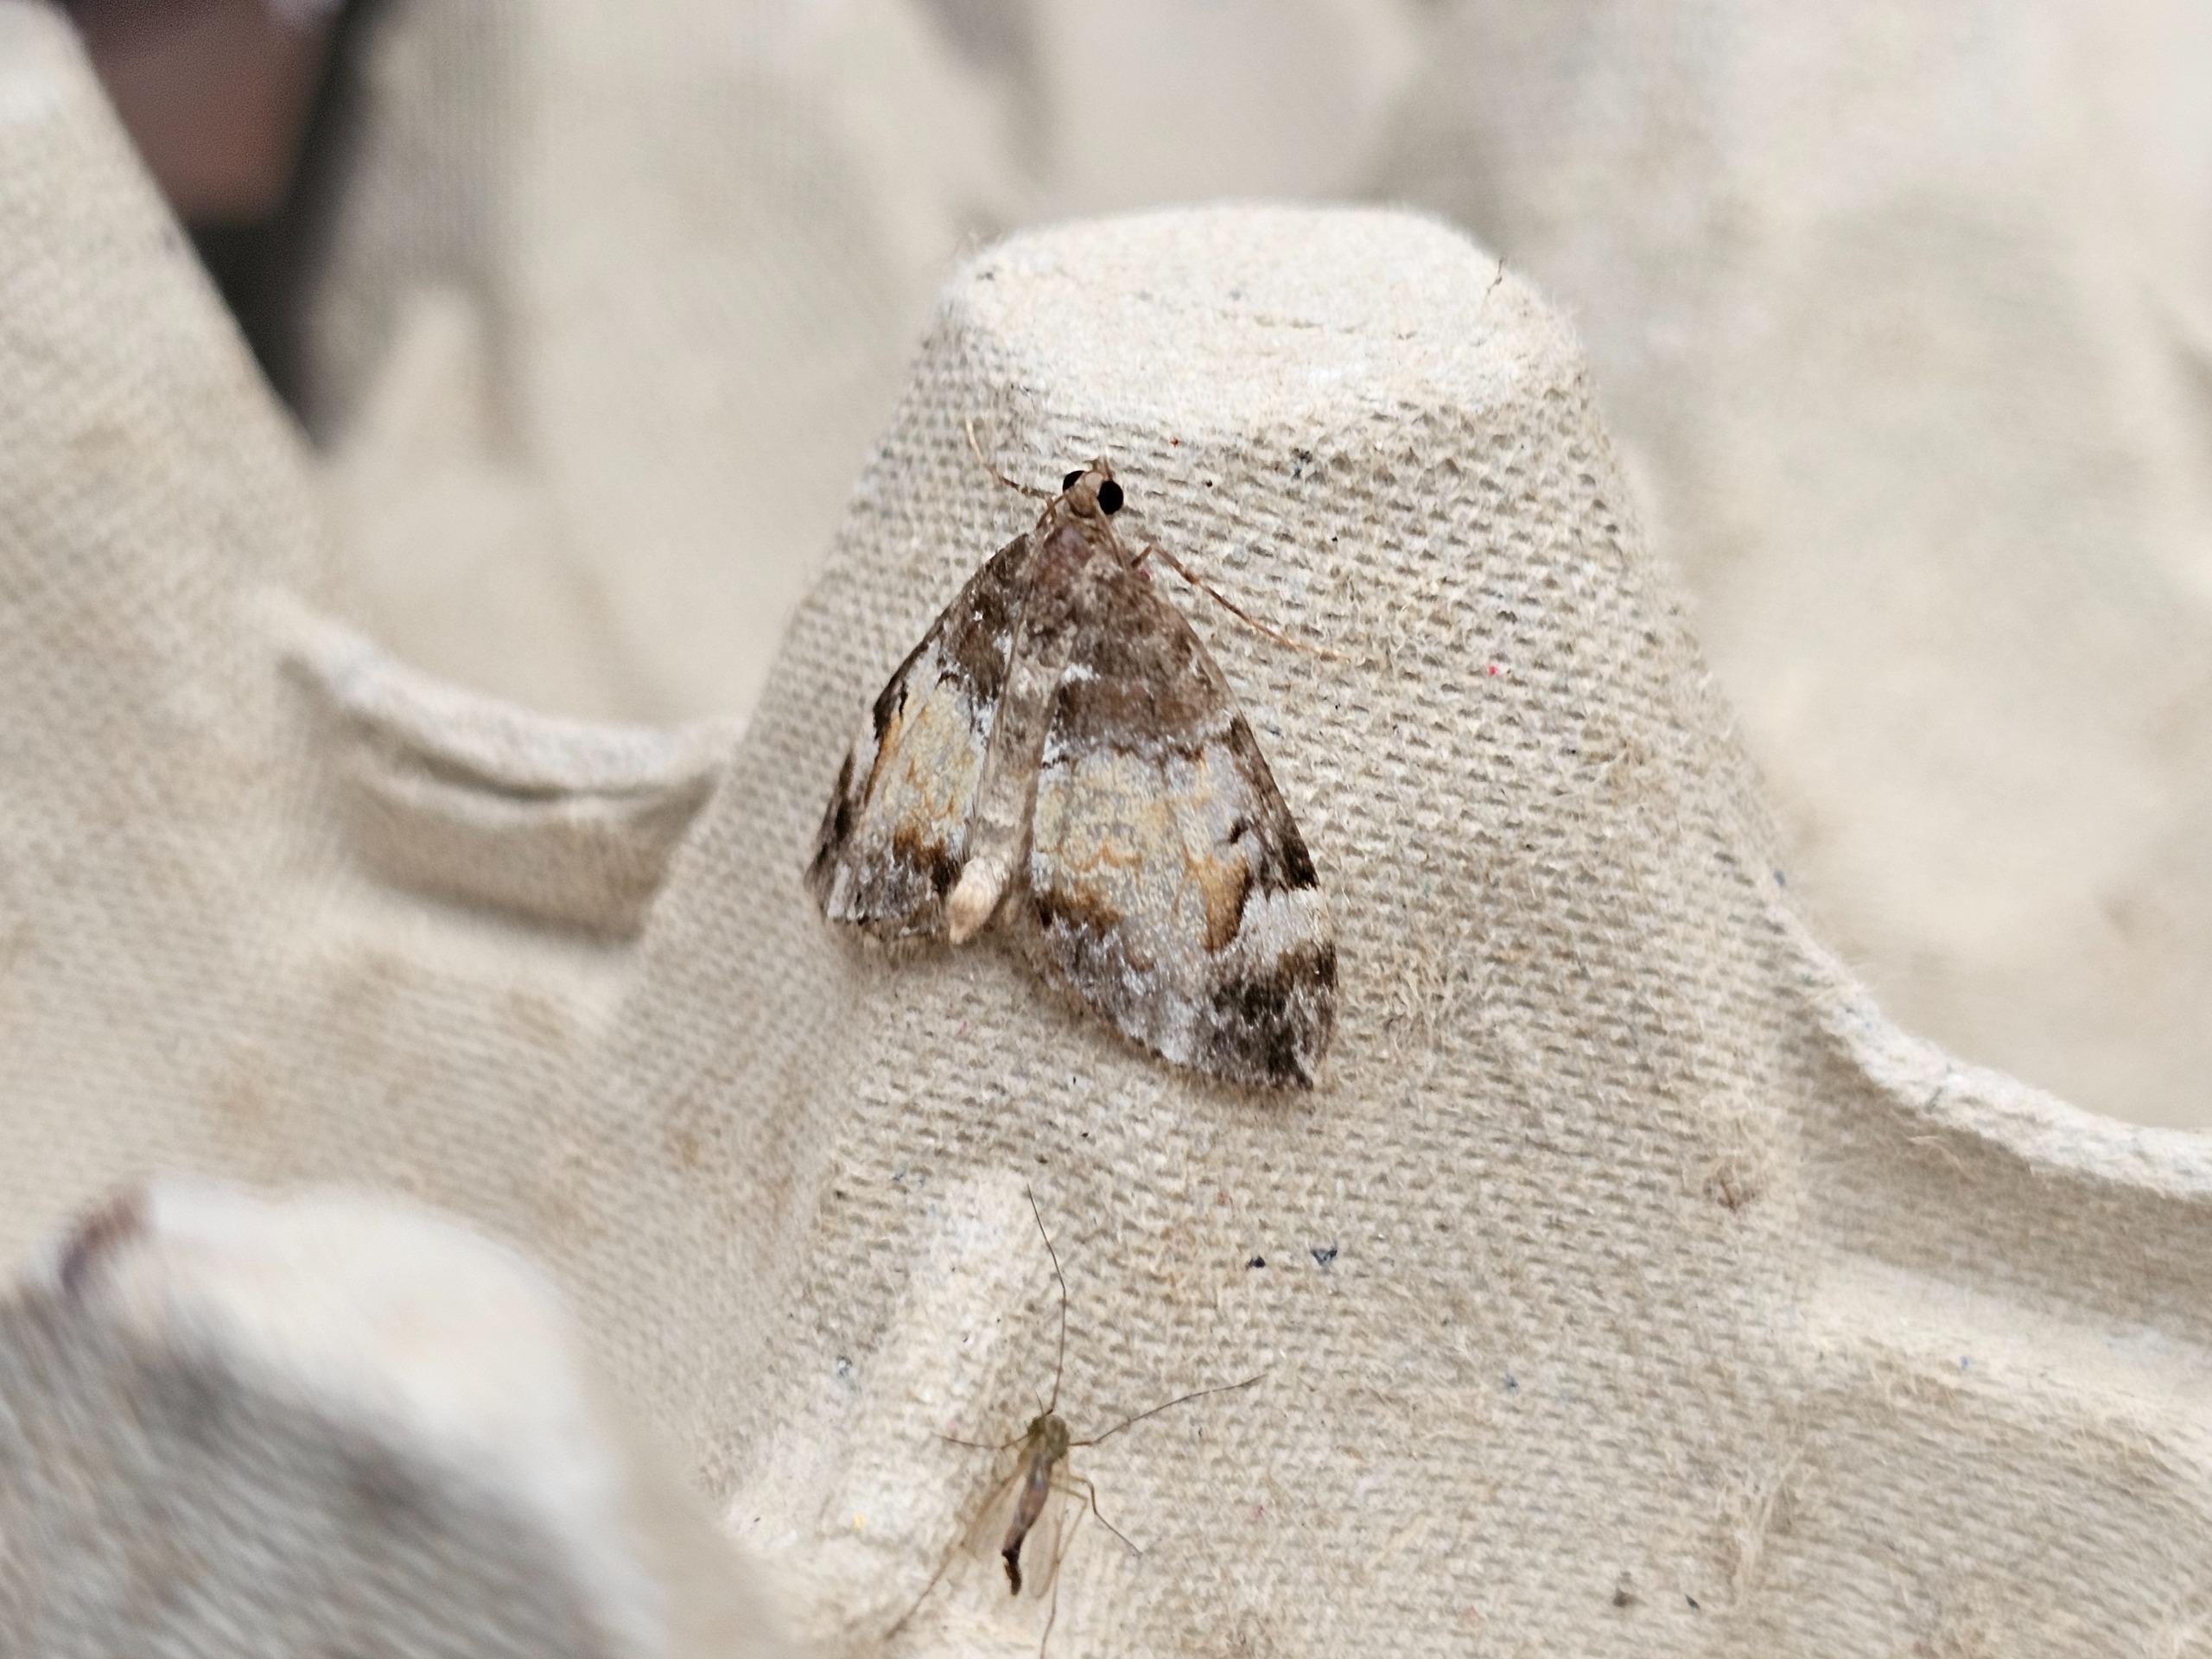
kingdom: Animalia
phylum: Arthropoda
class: Insecta
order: Lepidoptera
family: Geometridae
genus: Dysstroma
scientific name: Dysstroma truncata
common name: Jordbær-bladmåler
